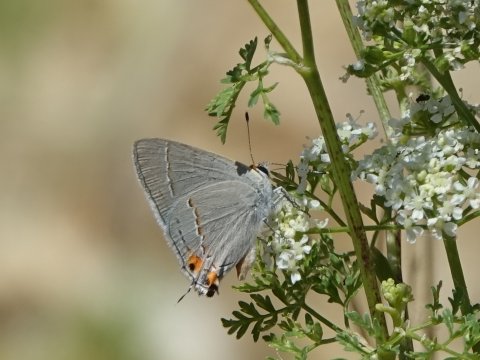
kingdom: Animalia
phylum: Arthropoda
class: Insecta
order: Lepidoptera
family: Lycaenidae
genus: Strymon
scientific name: Strymon melinus
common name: Gray Hairstreak
